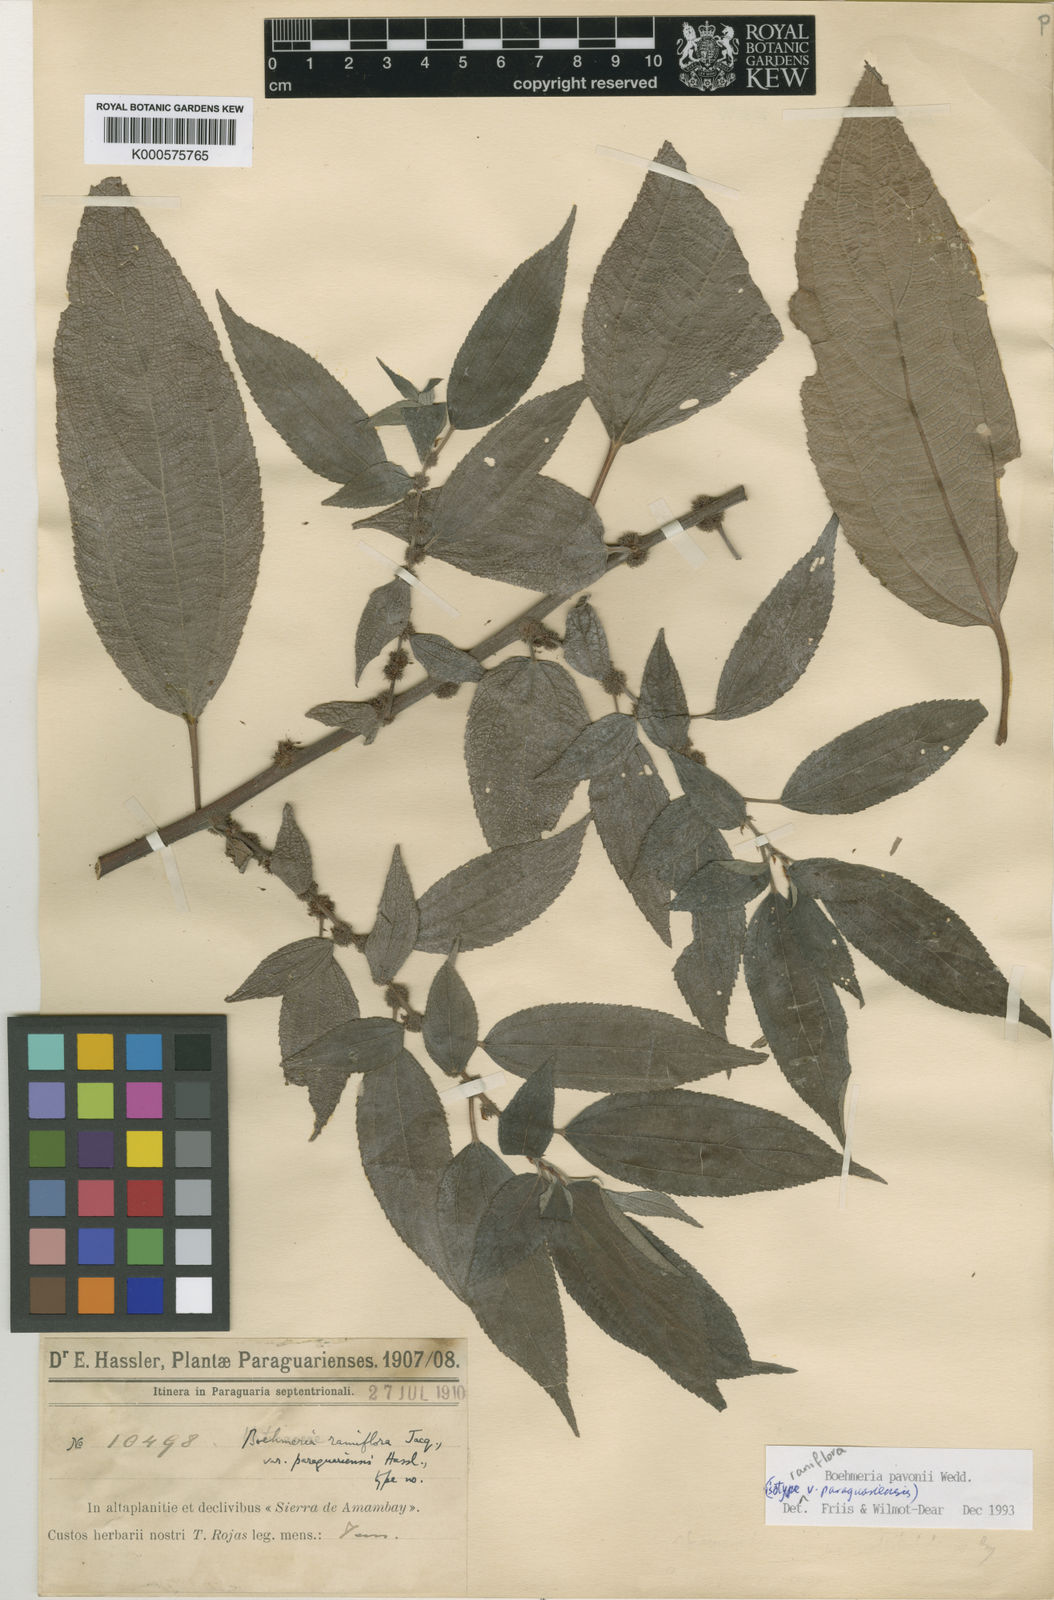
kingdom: Plantae
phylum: Tracheophyta
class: Magnoliopsida
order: Rosales
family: Urticaceae
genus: Boehmeria
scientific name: Boehmeria pavonii
